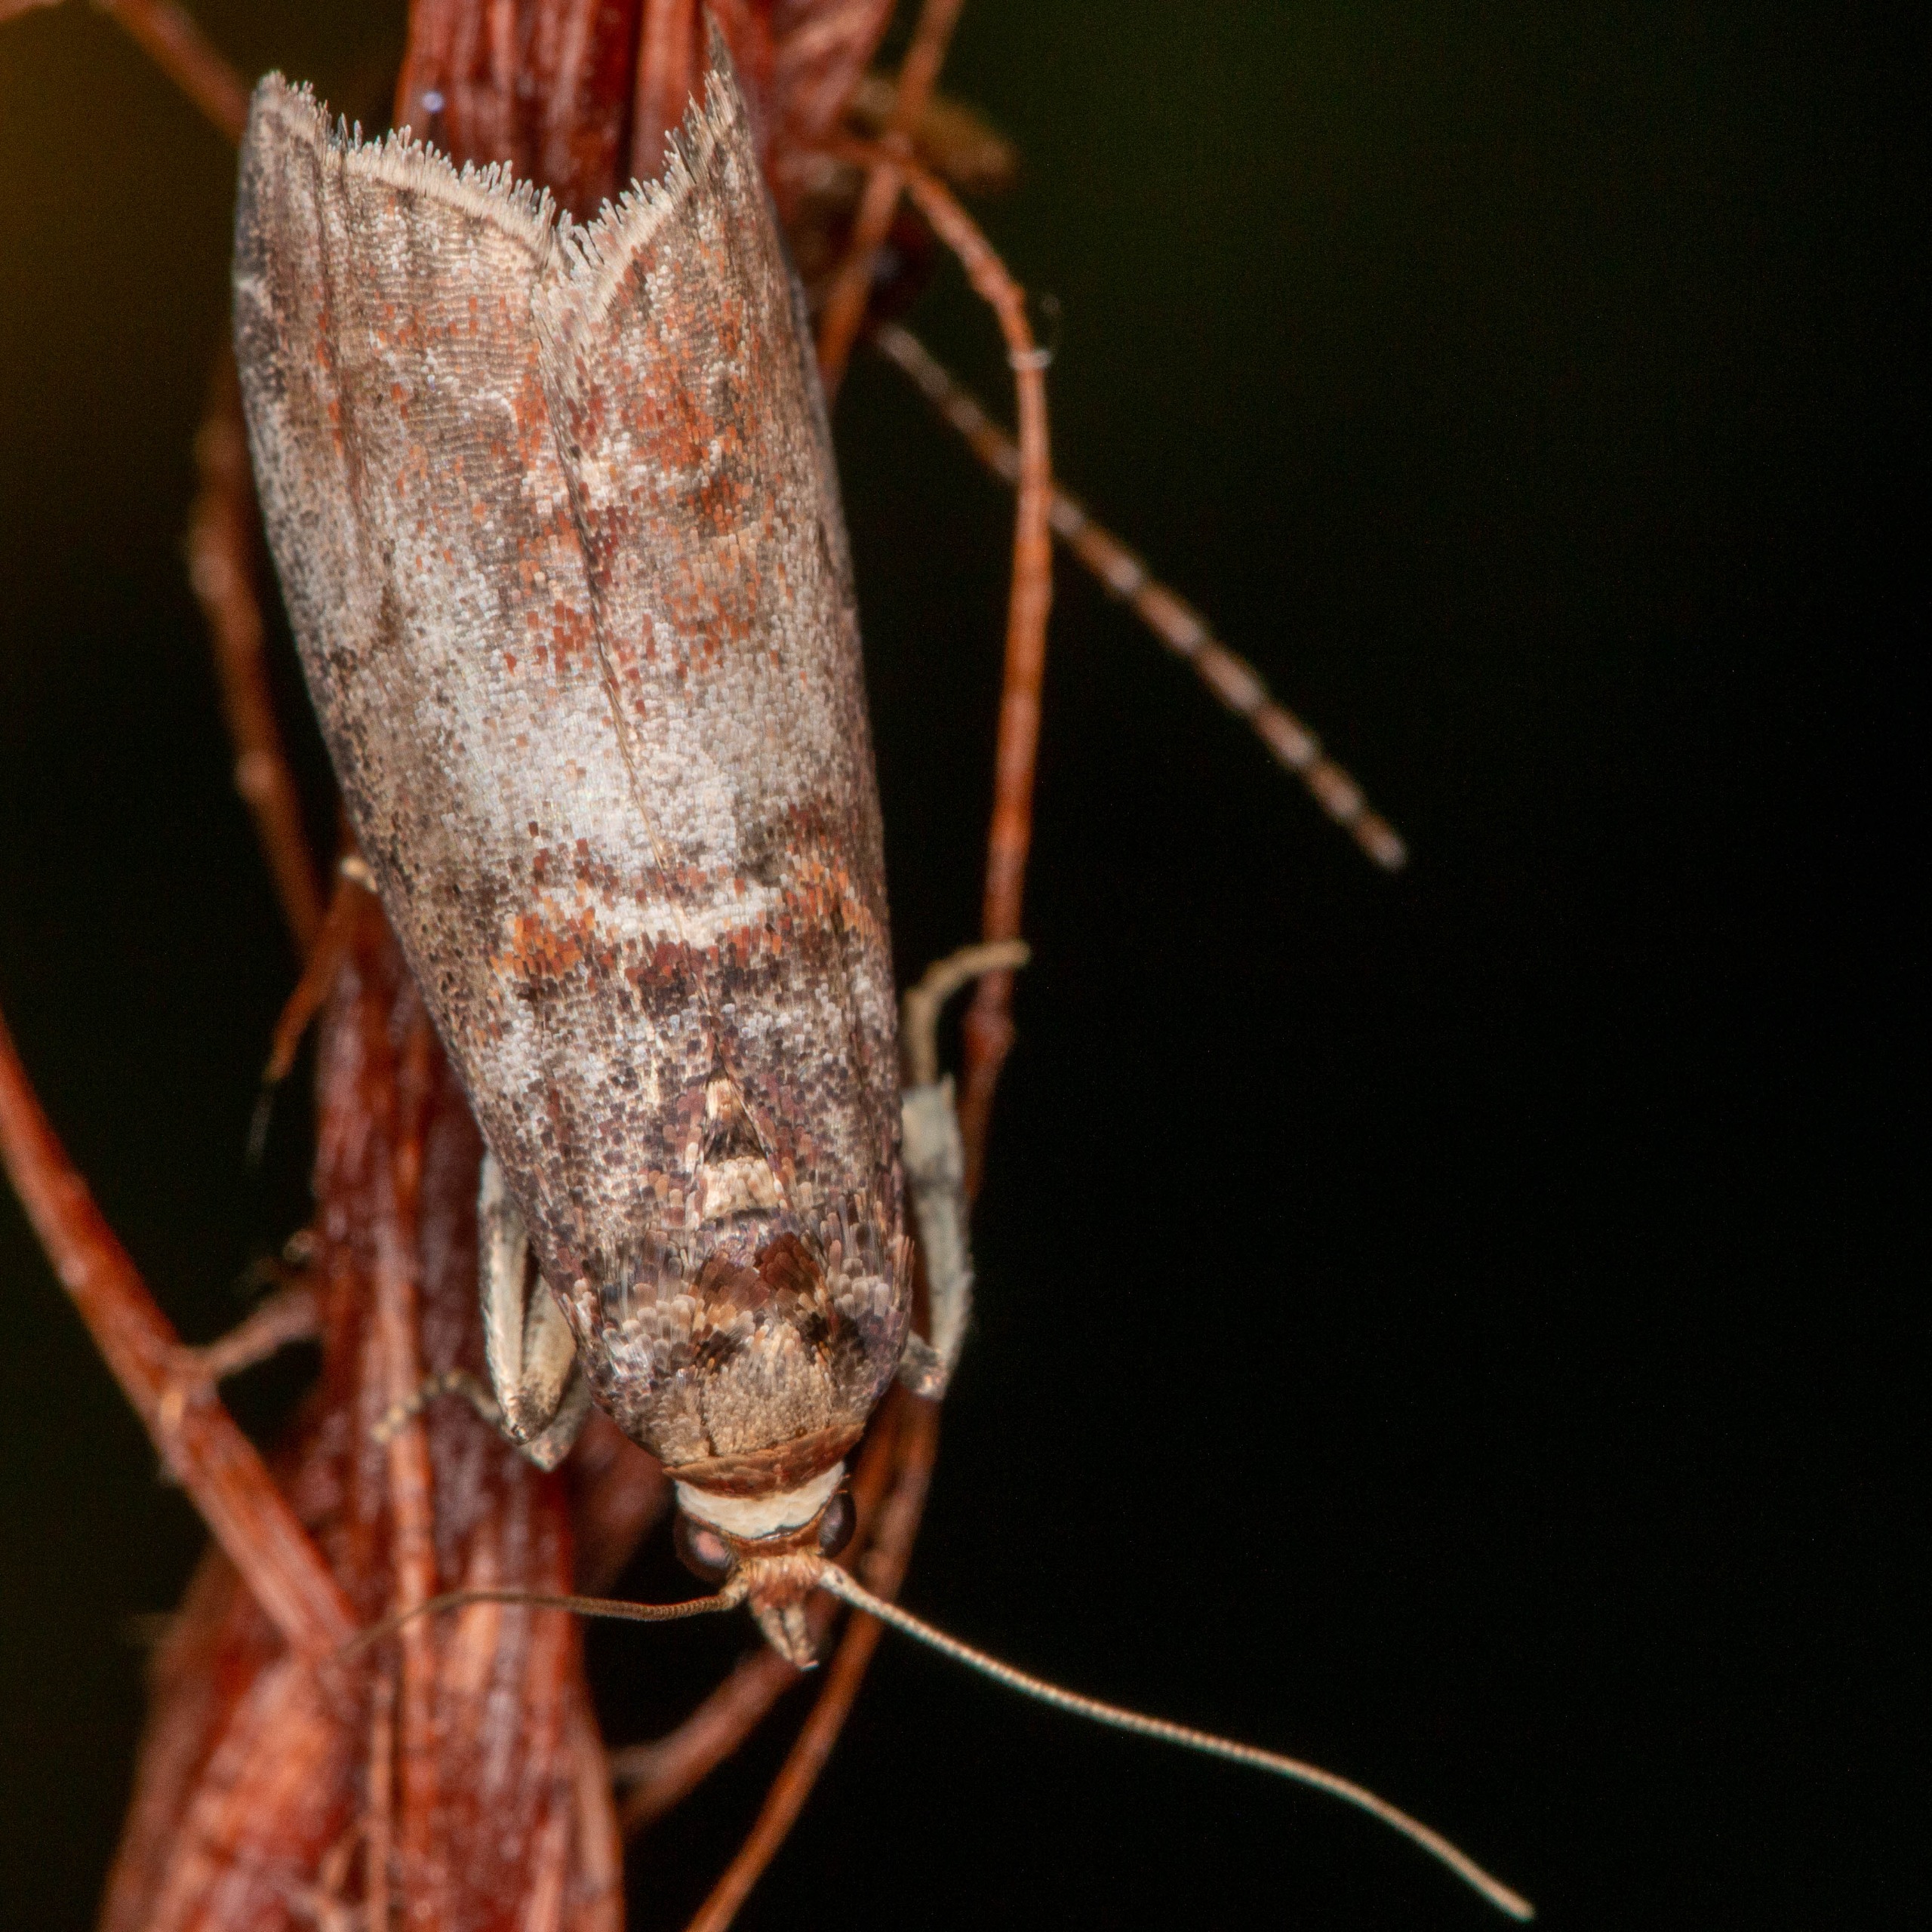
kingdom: Animalia
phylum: Arthropoda
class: Insecta
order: Lepidoptera
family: Pyralidae
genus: Acrobasis
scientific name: Acrobasis advenella
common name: Rønnehalvmøl
